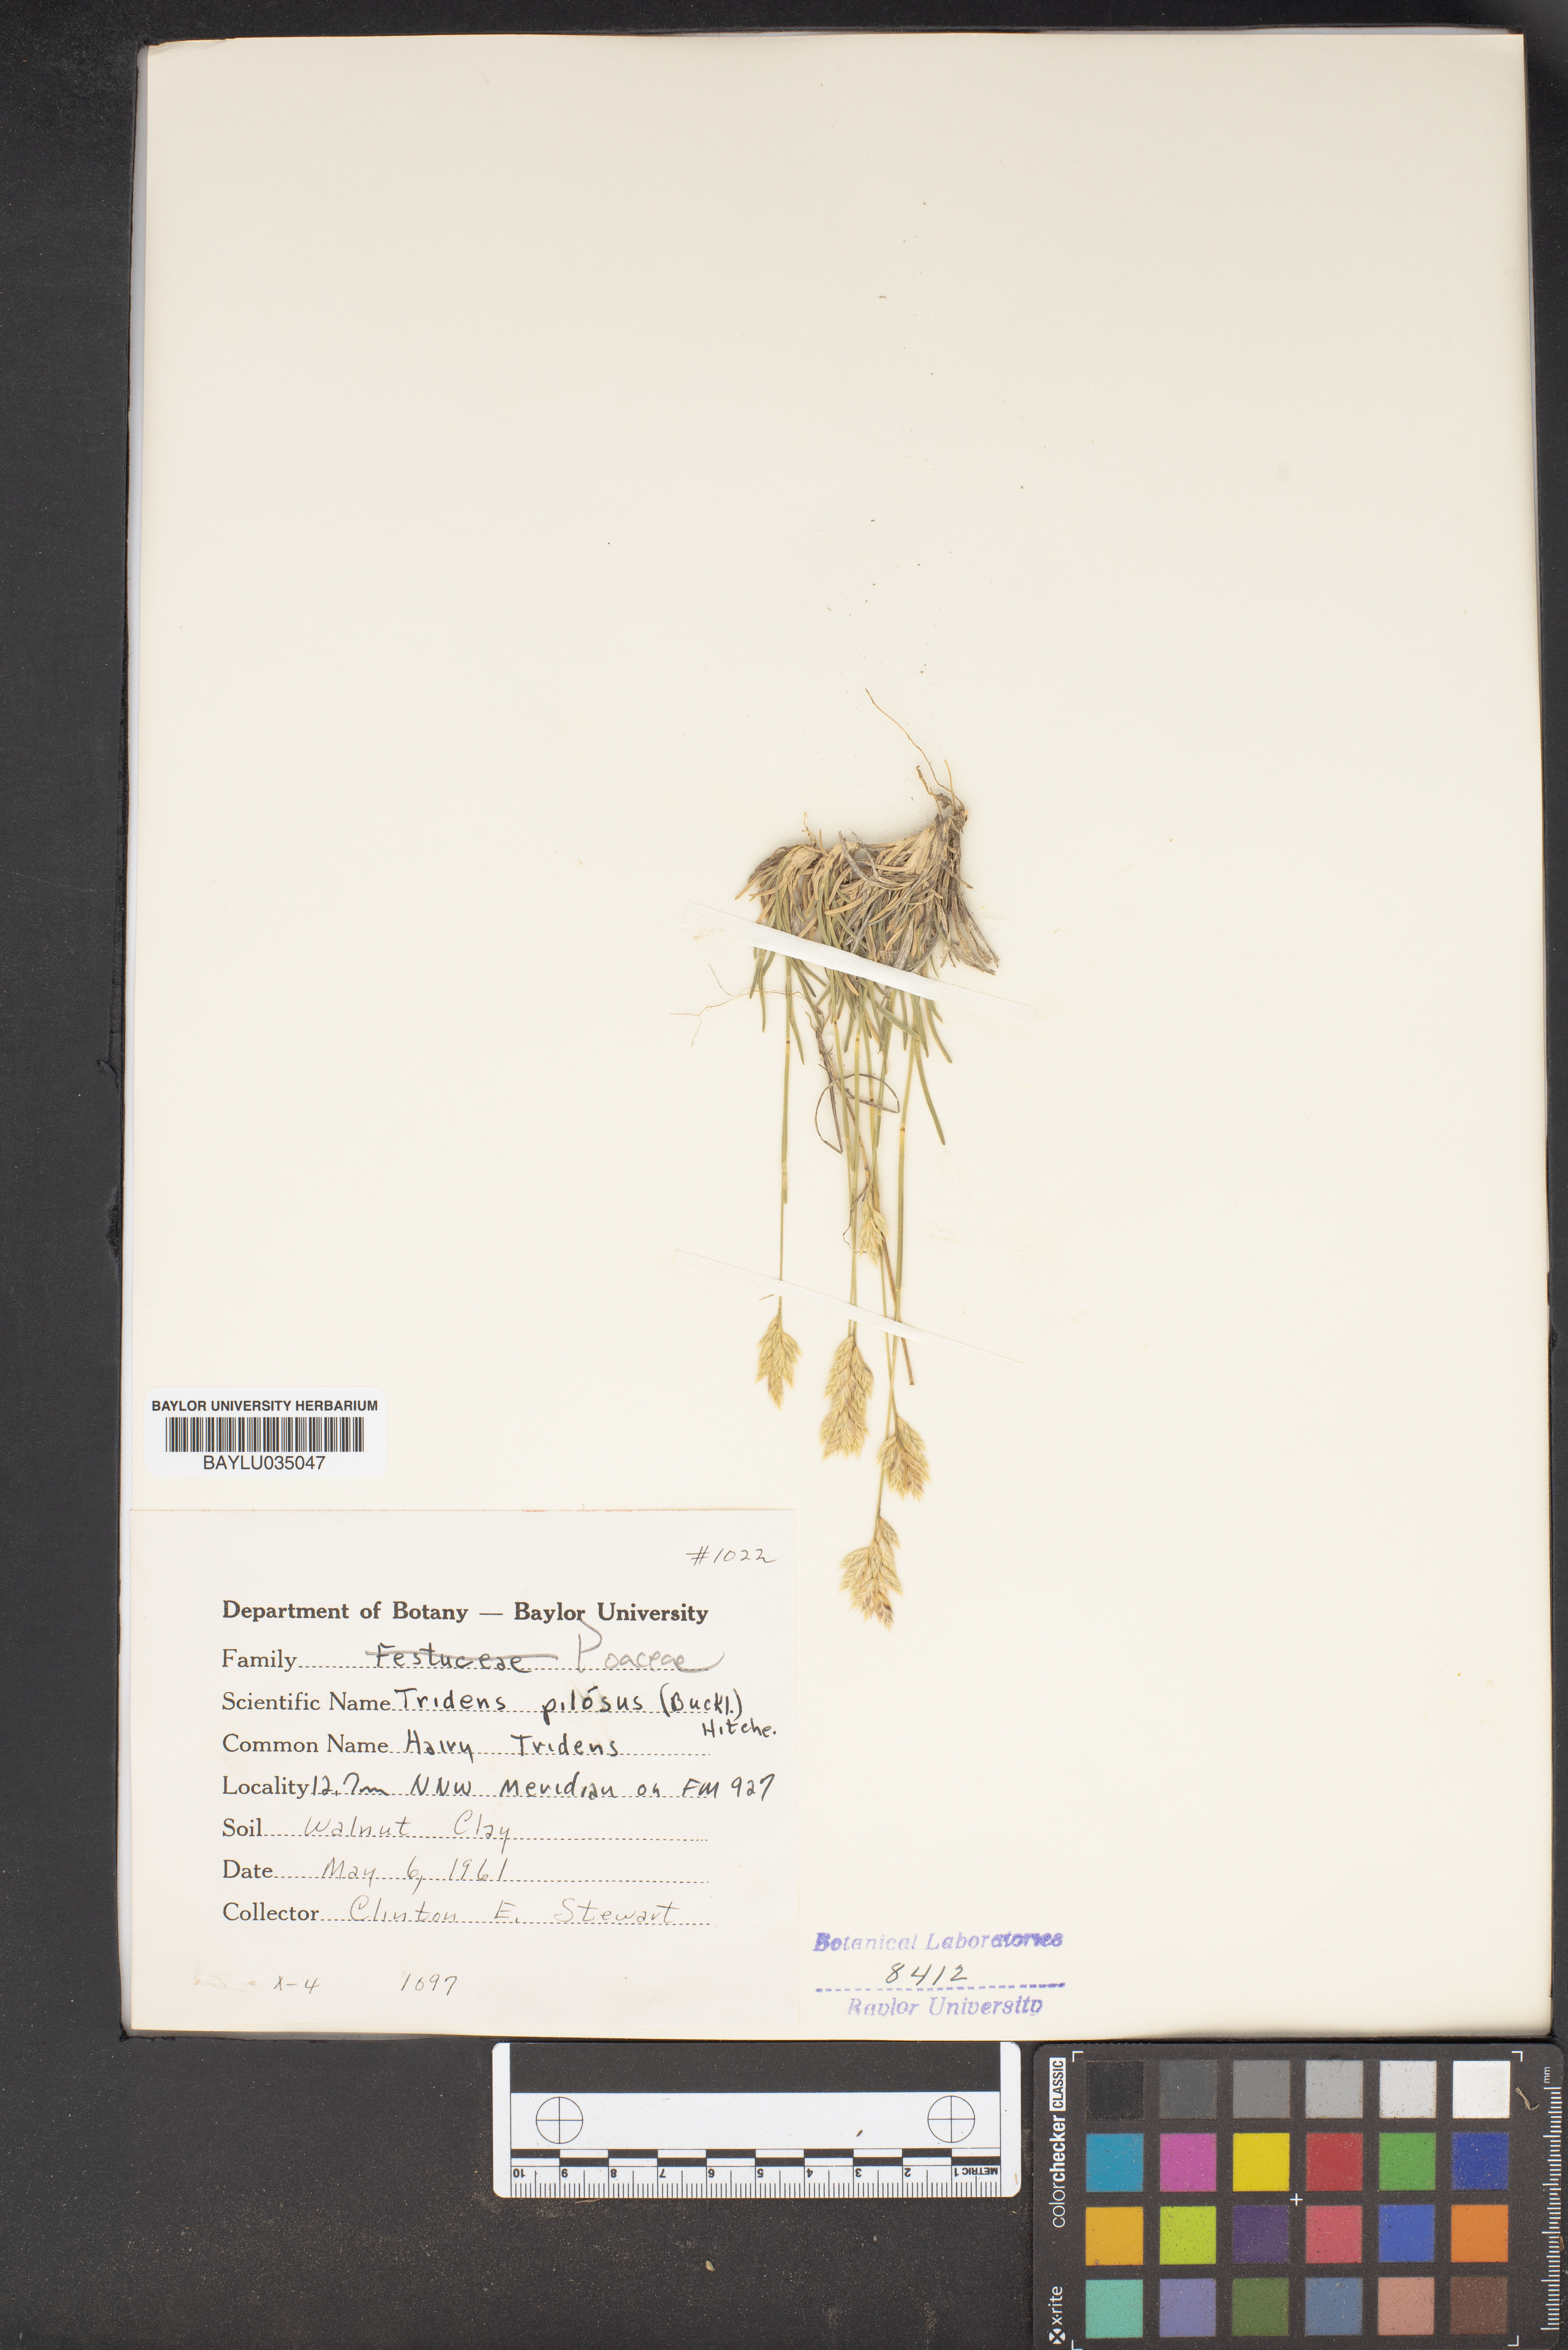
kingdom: Plantae
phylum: Tracheophyta
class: Liliopsida
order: Poales
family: Poaceae
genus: Tridentopsis
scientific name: Tridentopsis mutica
